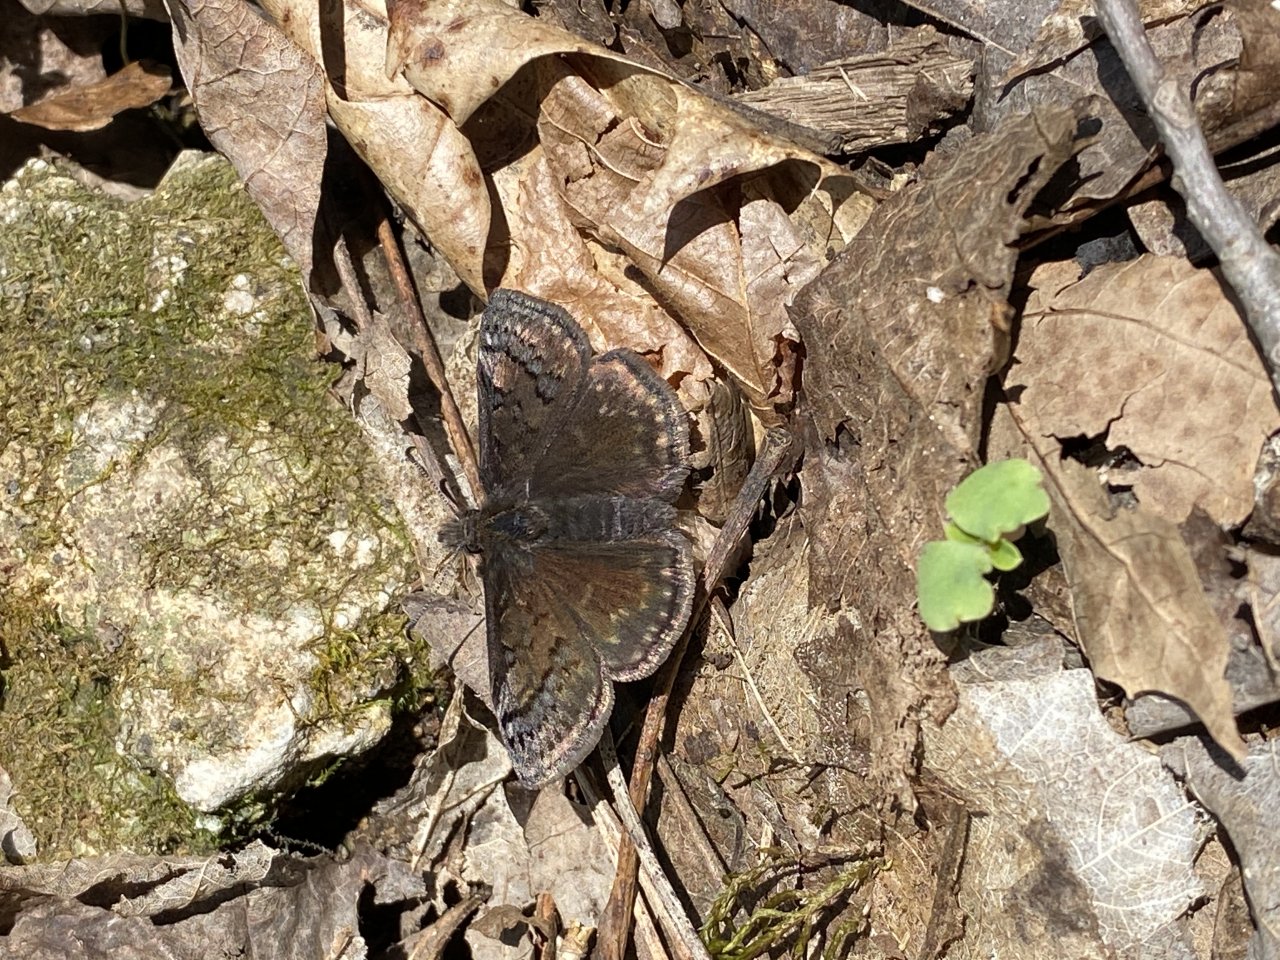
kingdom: Animalia
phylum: Arthropoda
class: Insecta
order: Lepidoptera
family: Hesperiidae
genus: Erynnis
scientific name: Erynnis brizo
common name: Sleepy Duskywing
